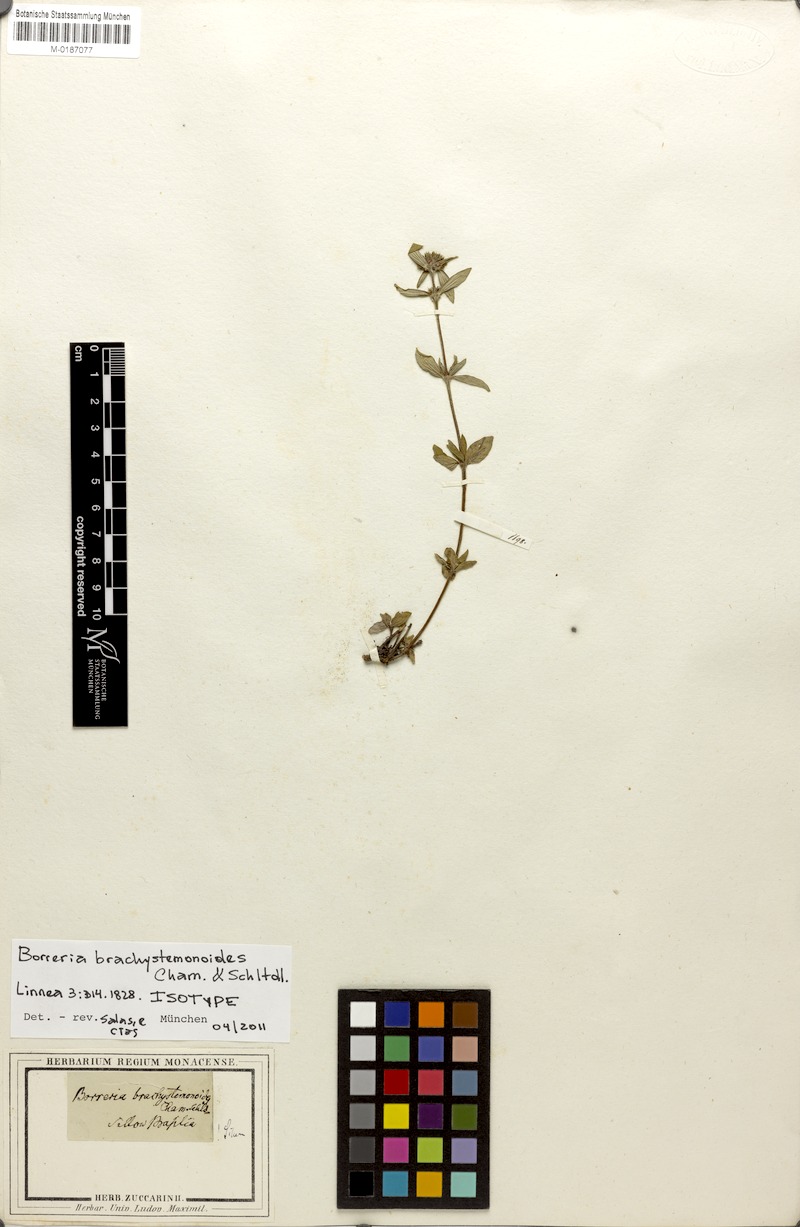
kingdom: Plantae
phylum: Tracheophyta
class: Magnoliopsida
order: Gentianales
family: Rubiaceae
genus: Spermacoce
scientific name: Spermacoce brachystemonoides
